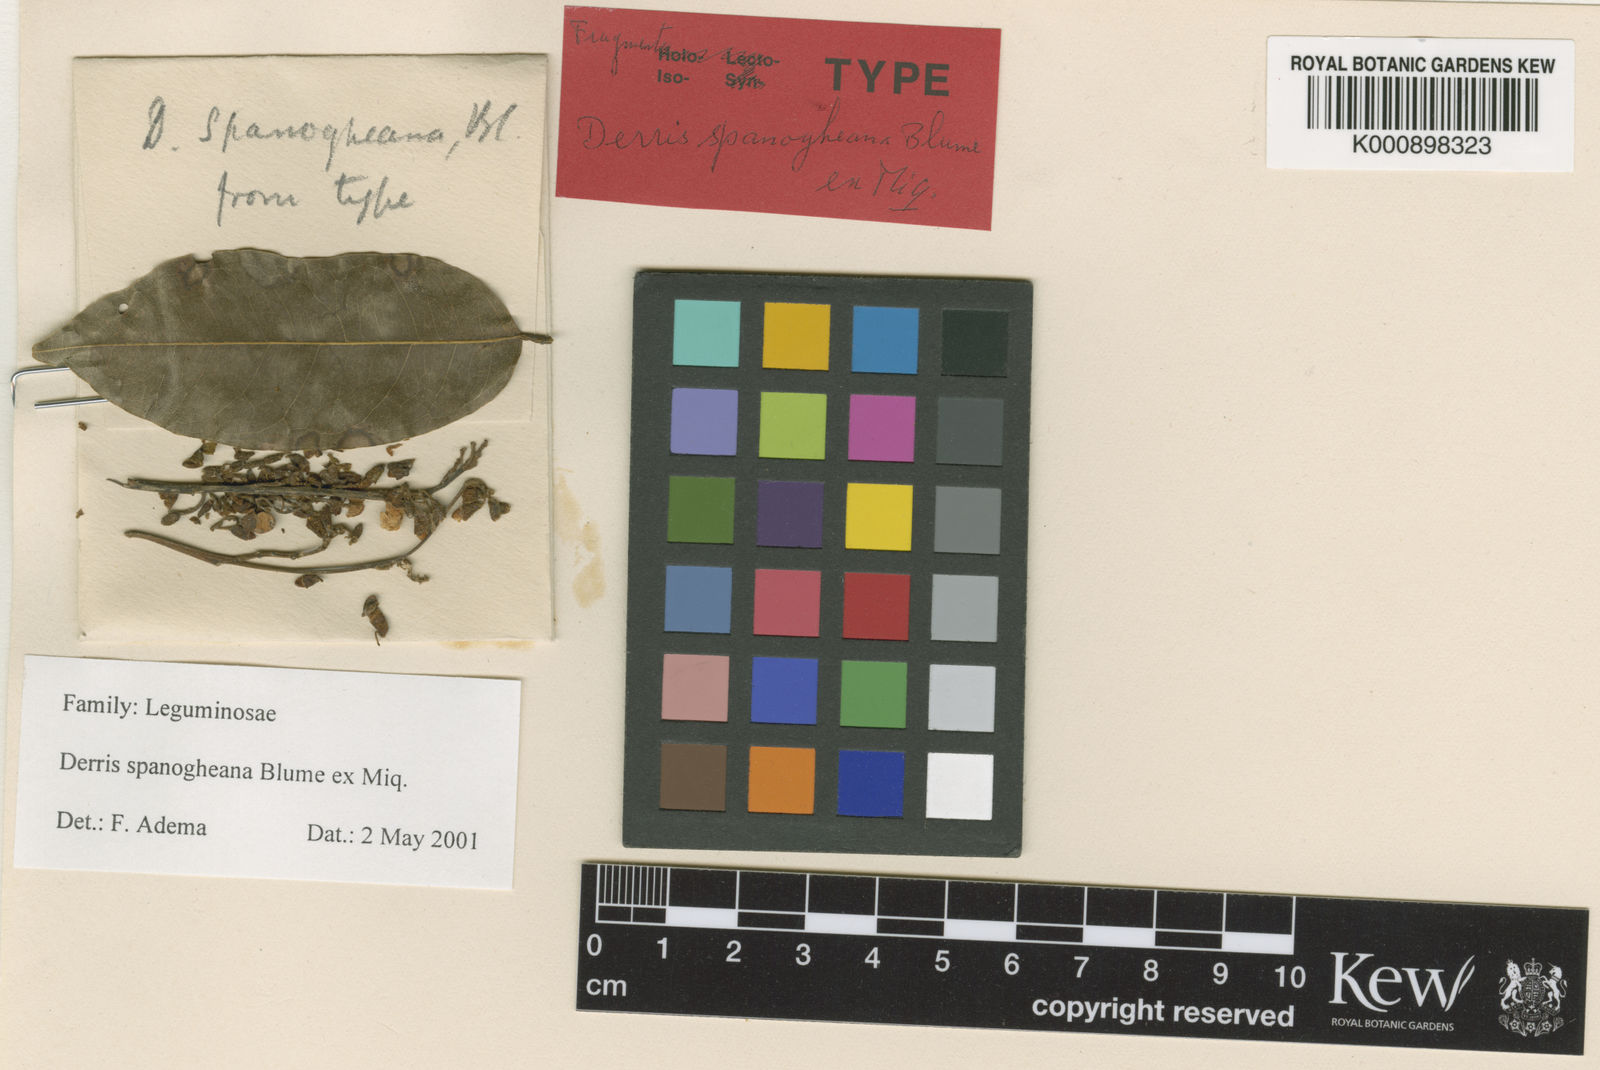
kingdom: Plantae
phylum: Tracheophyta
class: Magnoliopsida
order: Fabales
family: Fabaceae
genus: Derris
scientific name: Derris spanogheana
